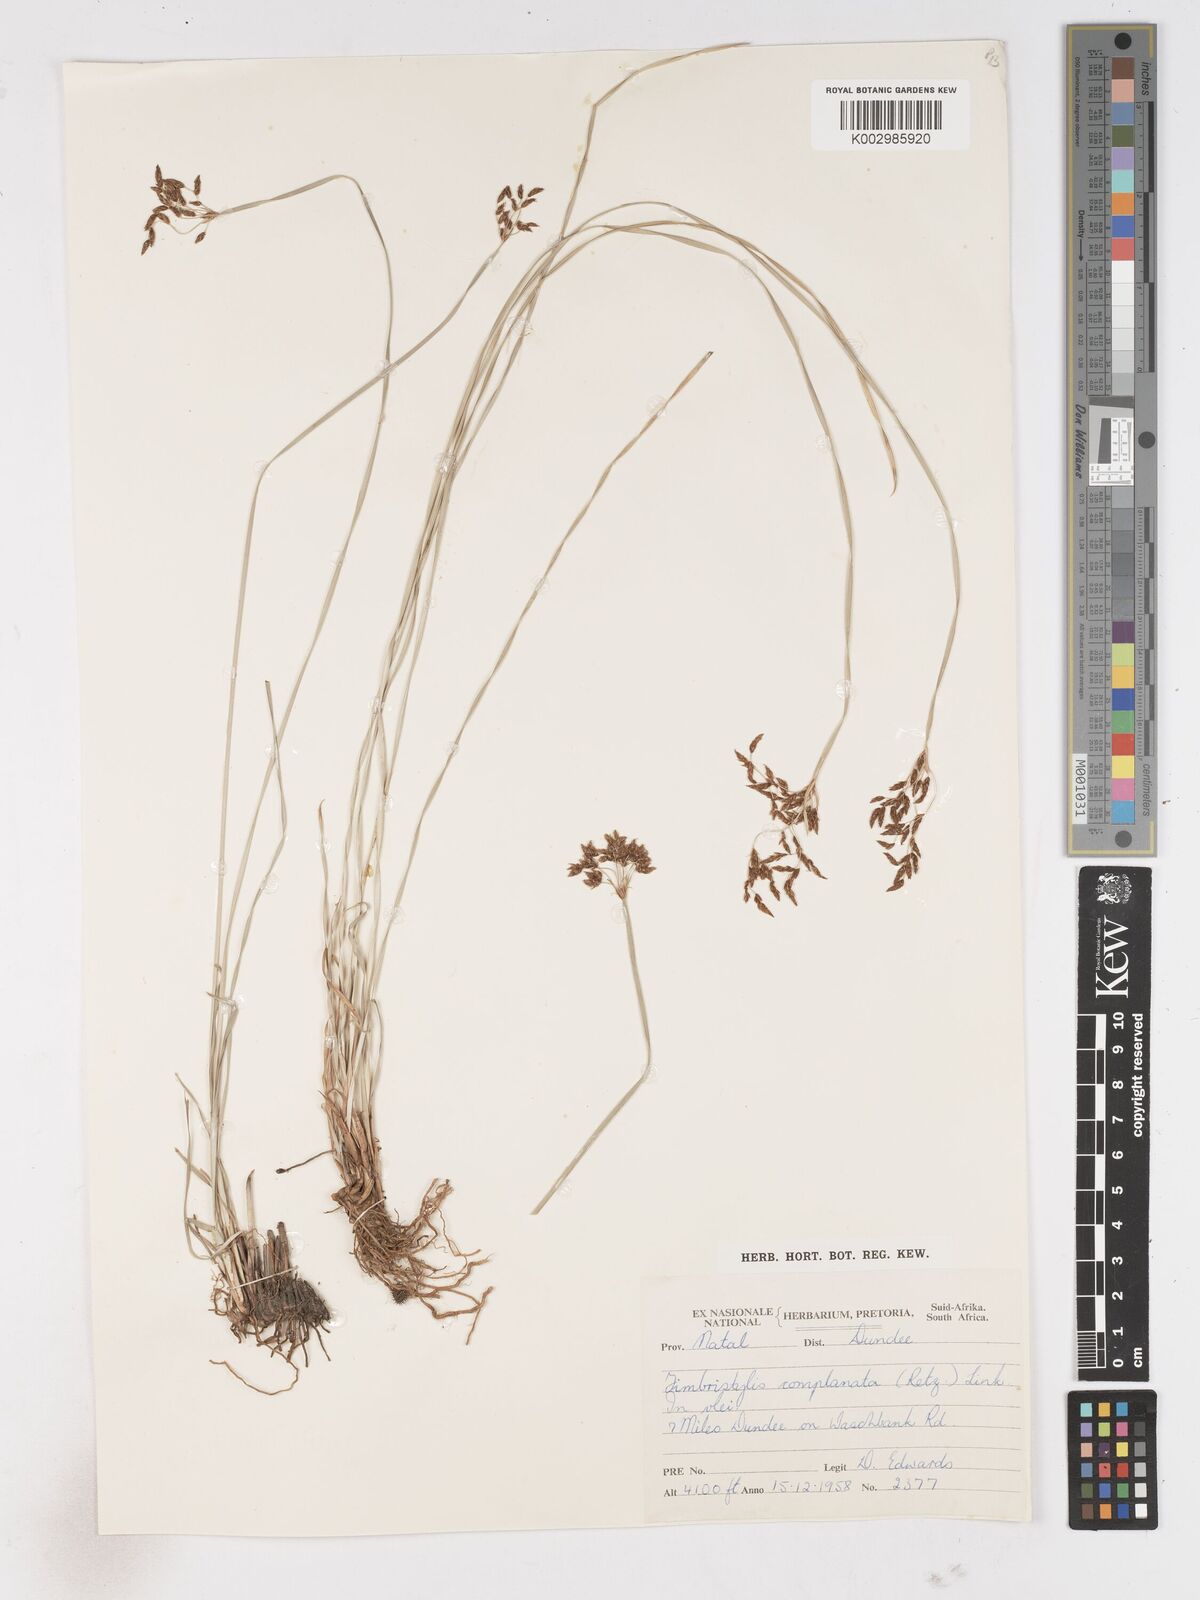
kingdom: Plantae
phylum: Tracheophyta
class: Liliopsida
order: Poales
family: Cyperaceae
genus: Fimbristylis
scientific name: Fimbristylis complanata
